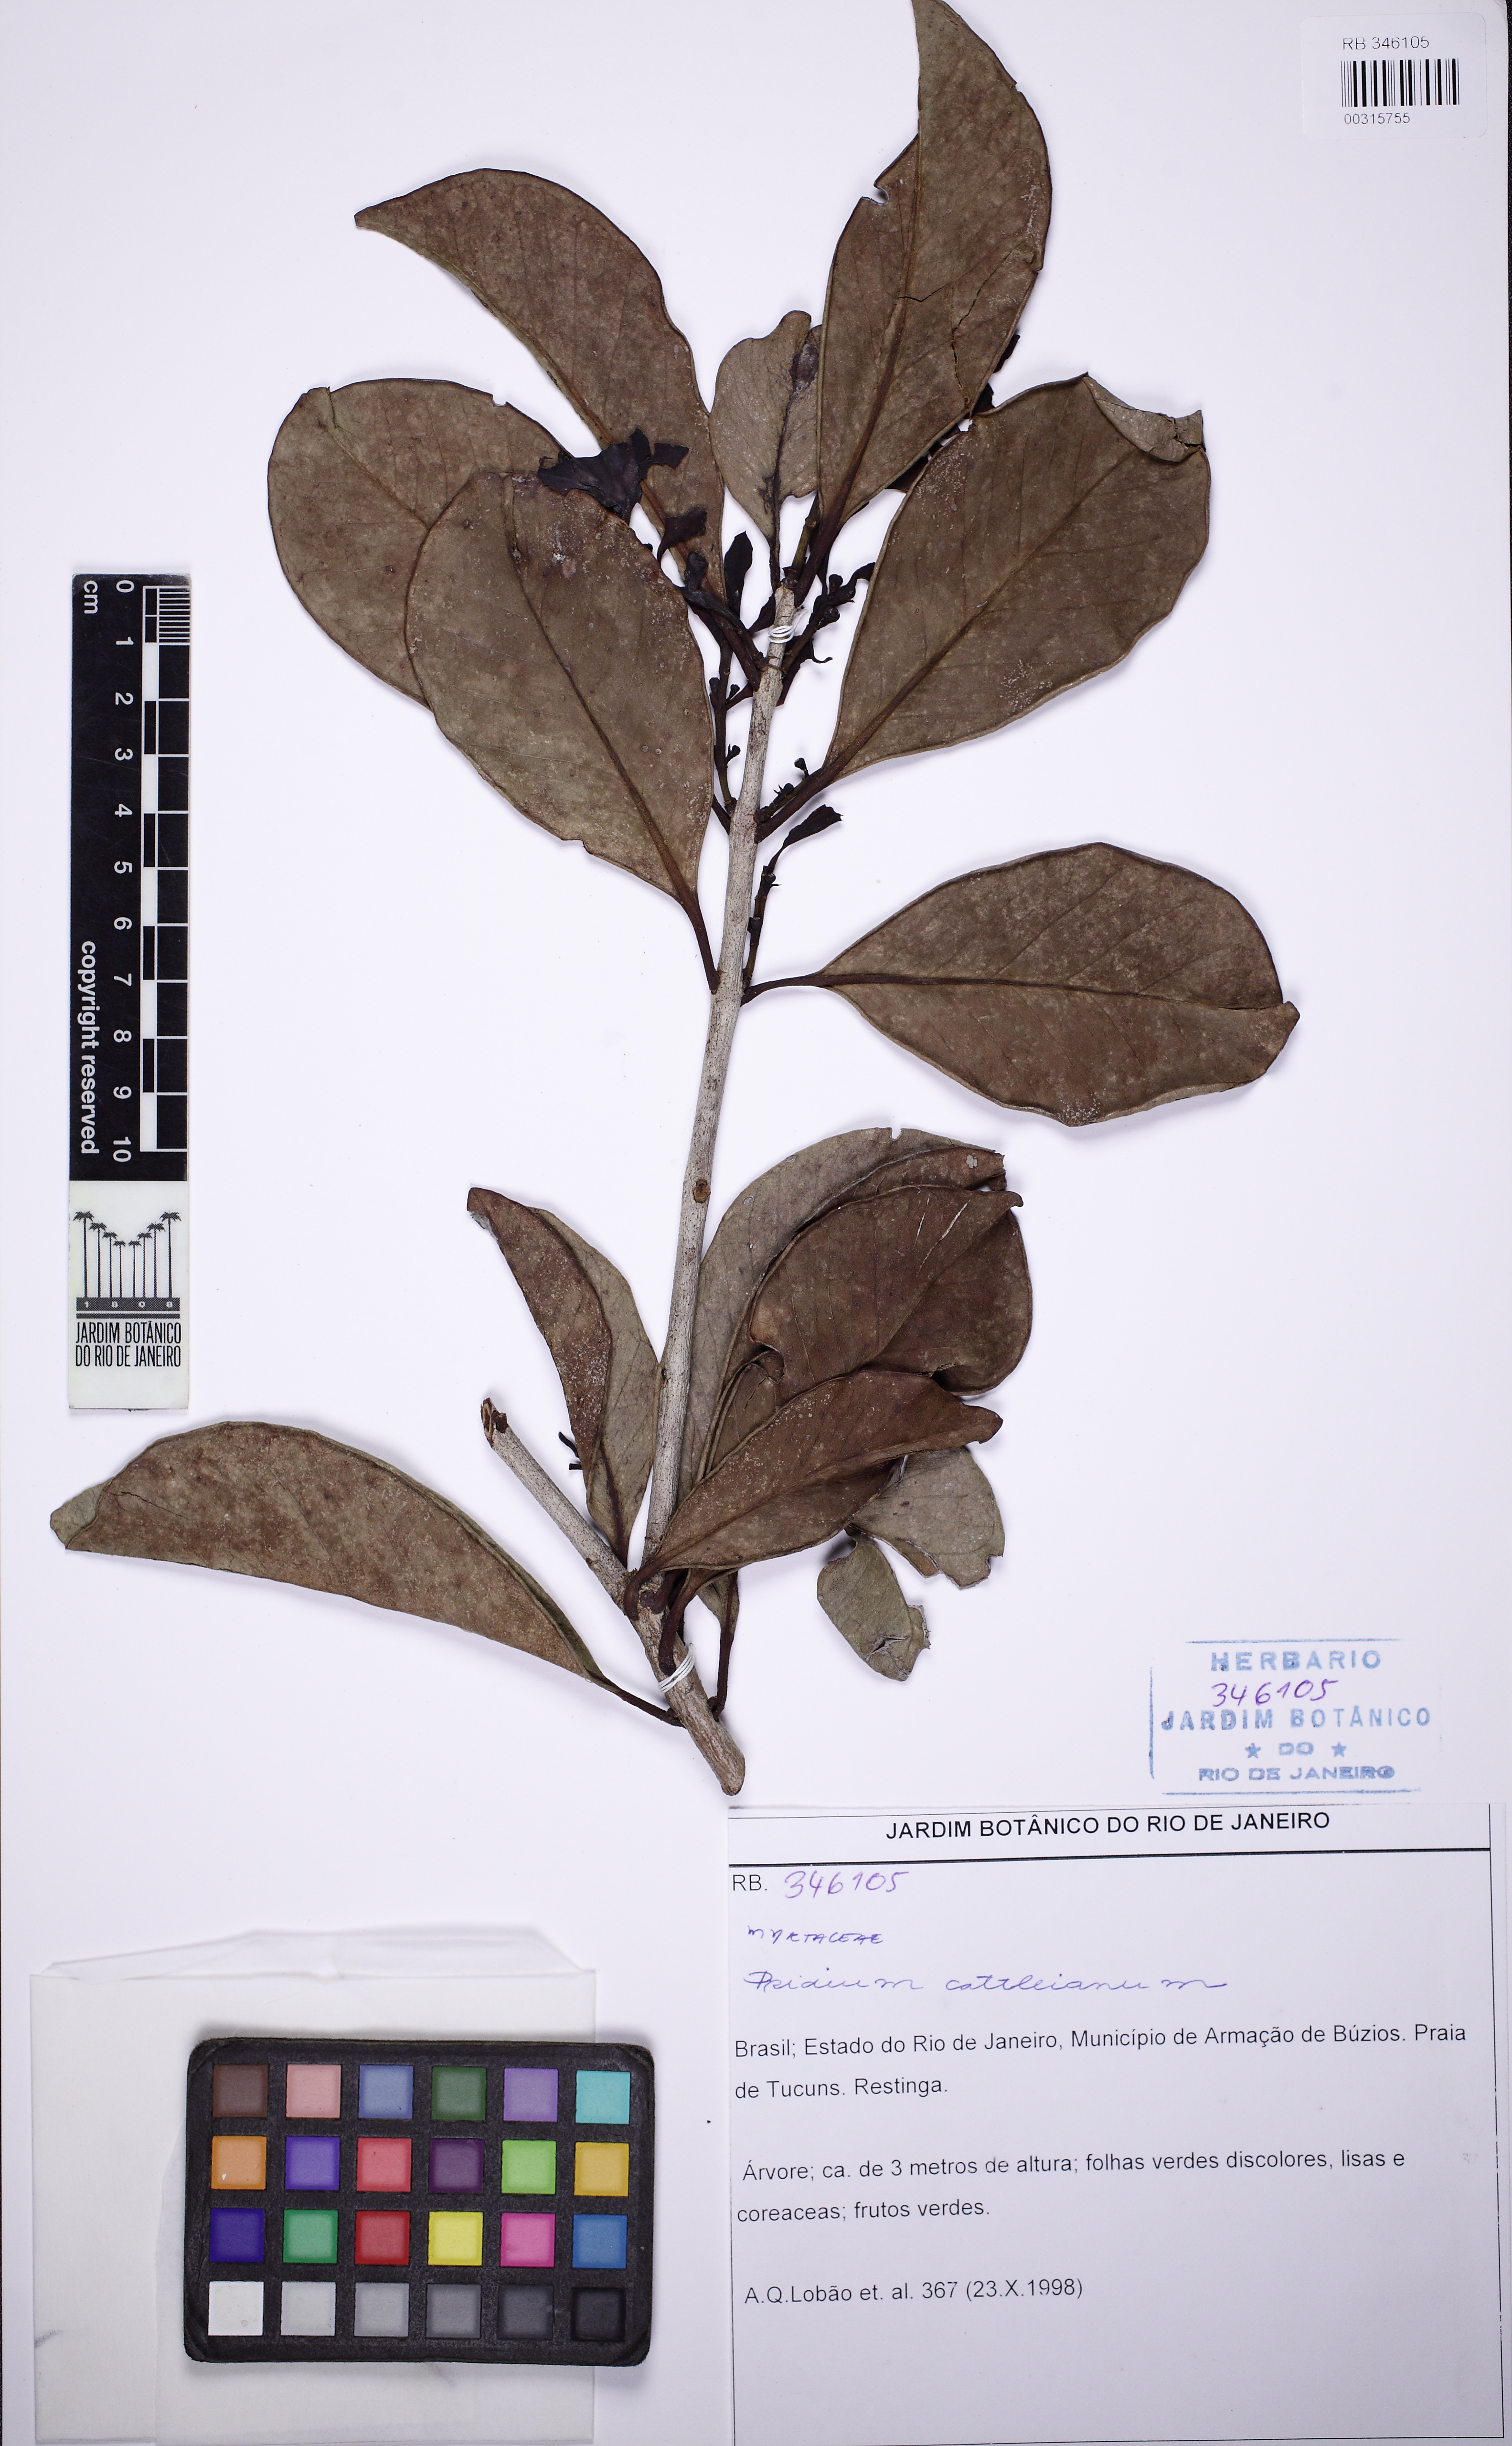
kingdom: Plantae
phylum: Tracheophyta
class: Magnoliopsida
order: Myrtales
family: Myrtaceae
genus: Psidium
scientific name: Psidium cattleianum
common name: Strawberry guava
